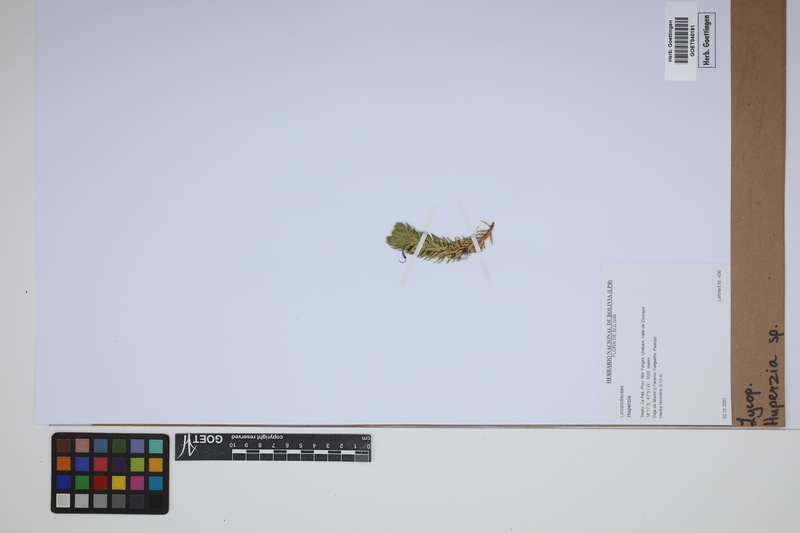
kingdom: Plantae
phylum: Tracheophyta
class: Lycopodiopsida
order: Lycopodiales
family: Lycopodiaceae
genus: Phlegmariurus
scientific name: Phlegmariurus
